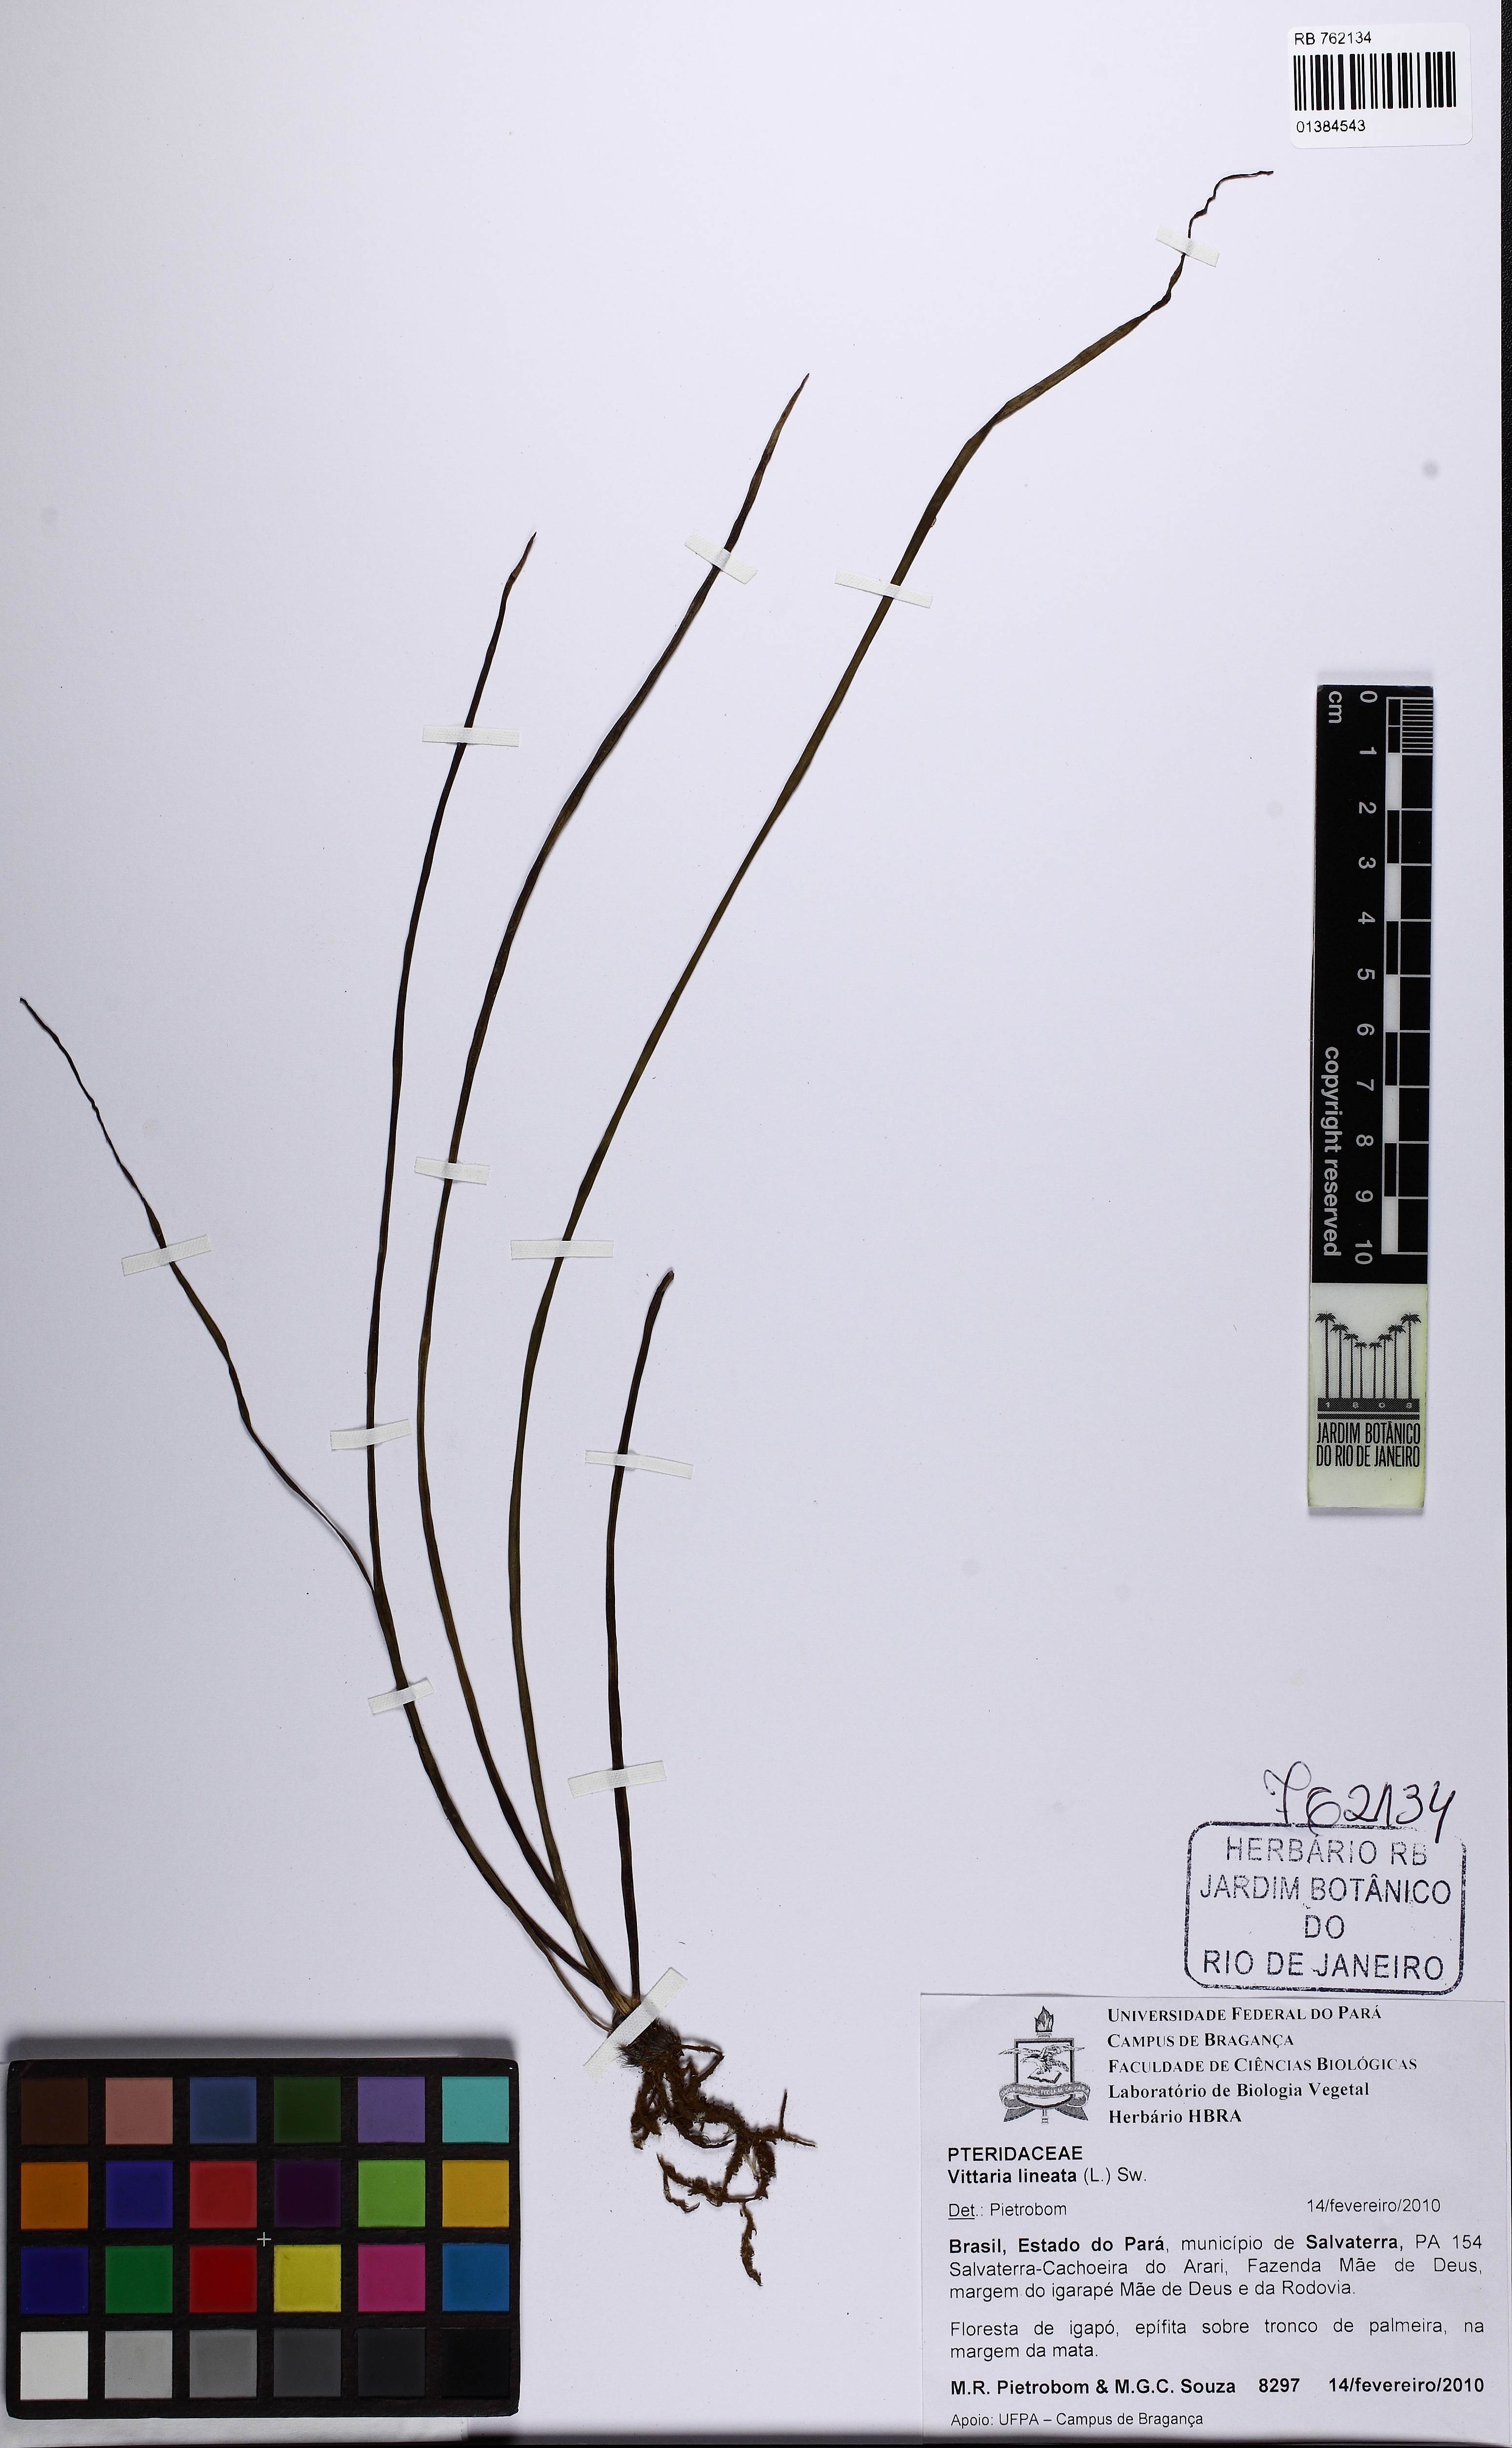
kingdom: Plantae
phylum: Tracheophyta
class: Polypodiopsida
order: Polypodiales
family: Pteridaceae
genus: Vittaria
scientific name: Vittaria lineata
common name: Shoestring fern
